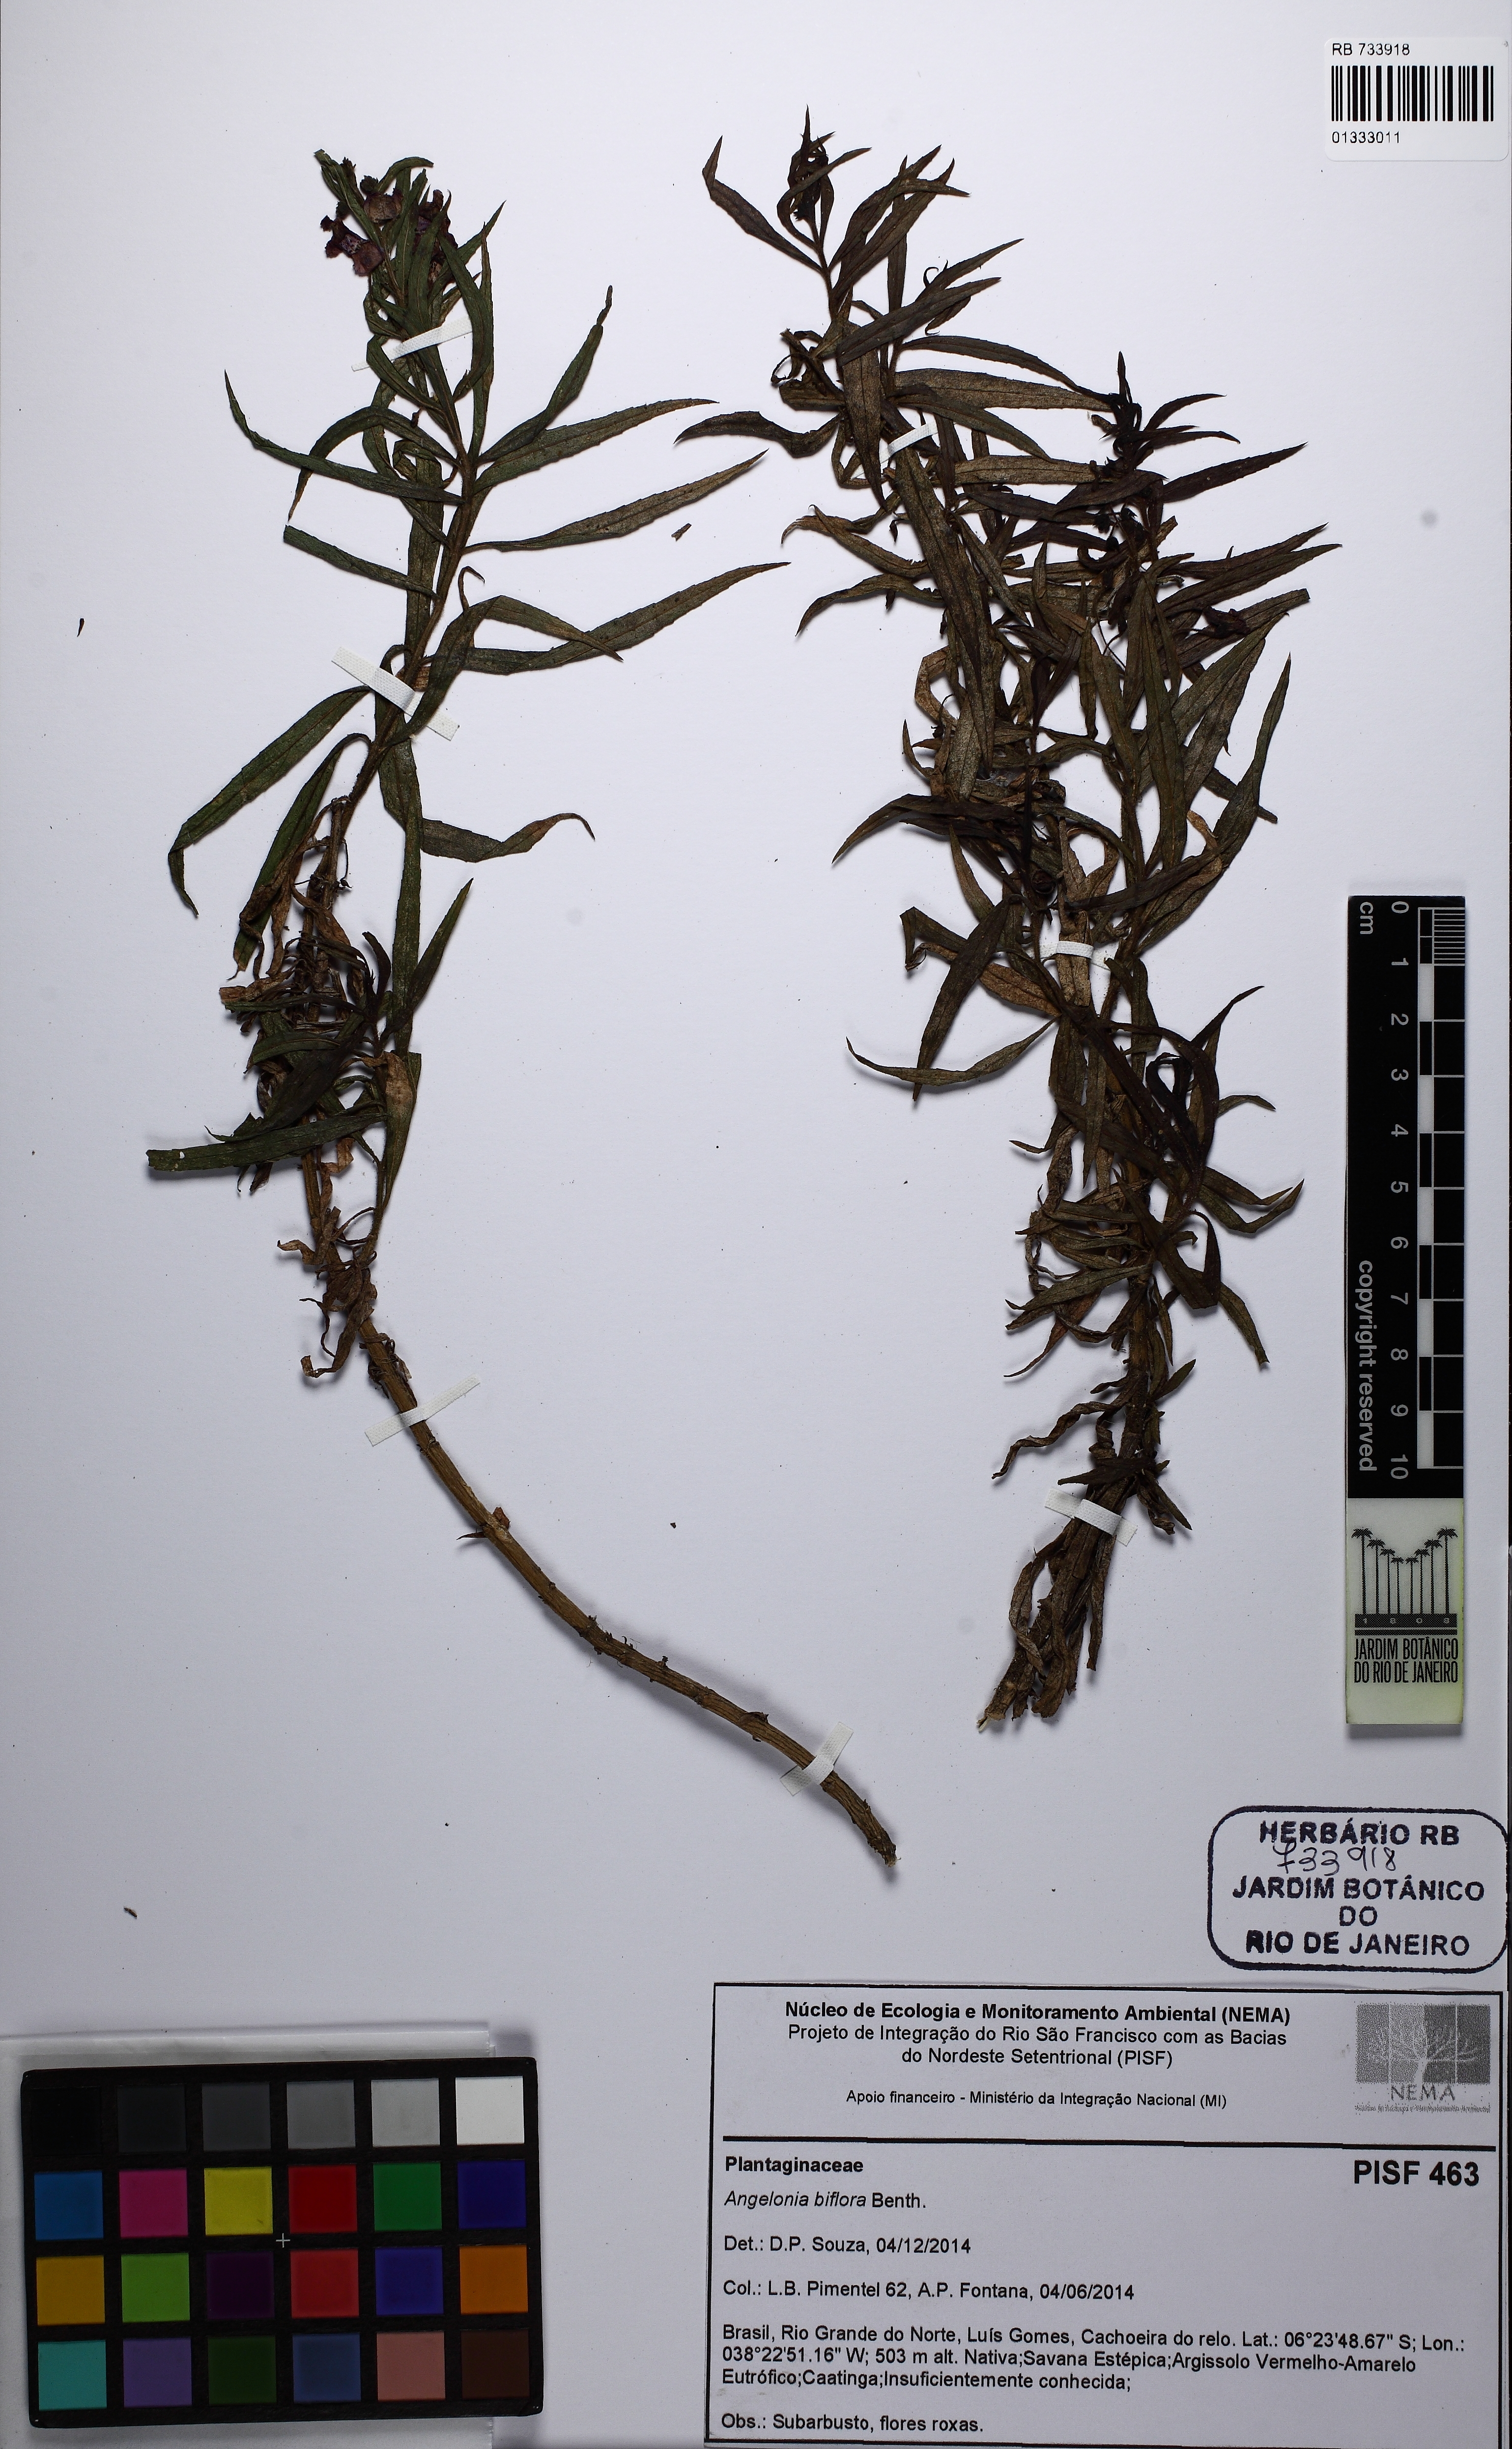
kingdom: Plantae
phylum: Tracheophyta
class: Magnoliopsida
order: Lamiales
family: Plantaginaceae
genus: Angelonia
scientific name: Angelonia biflora
